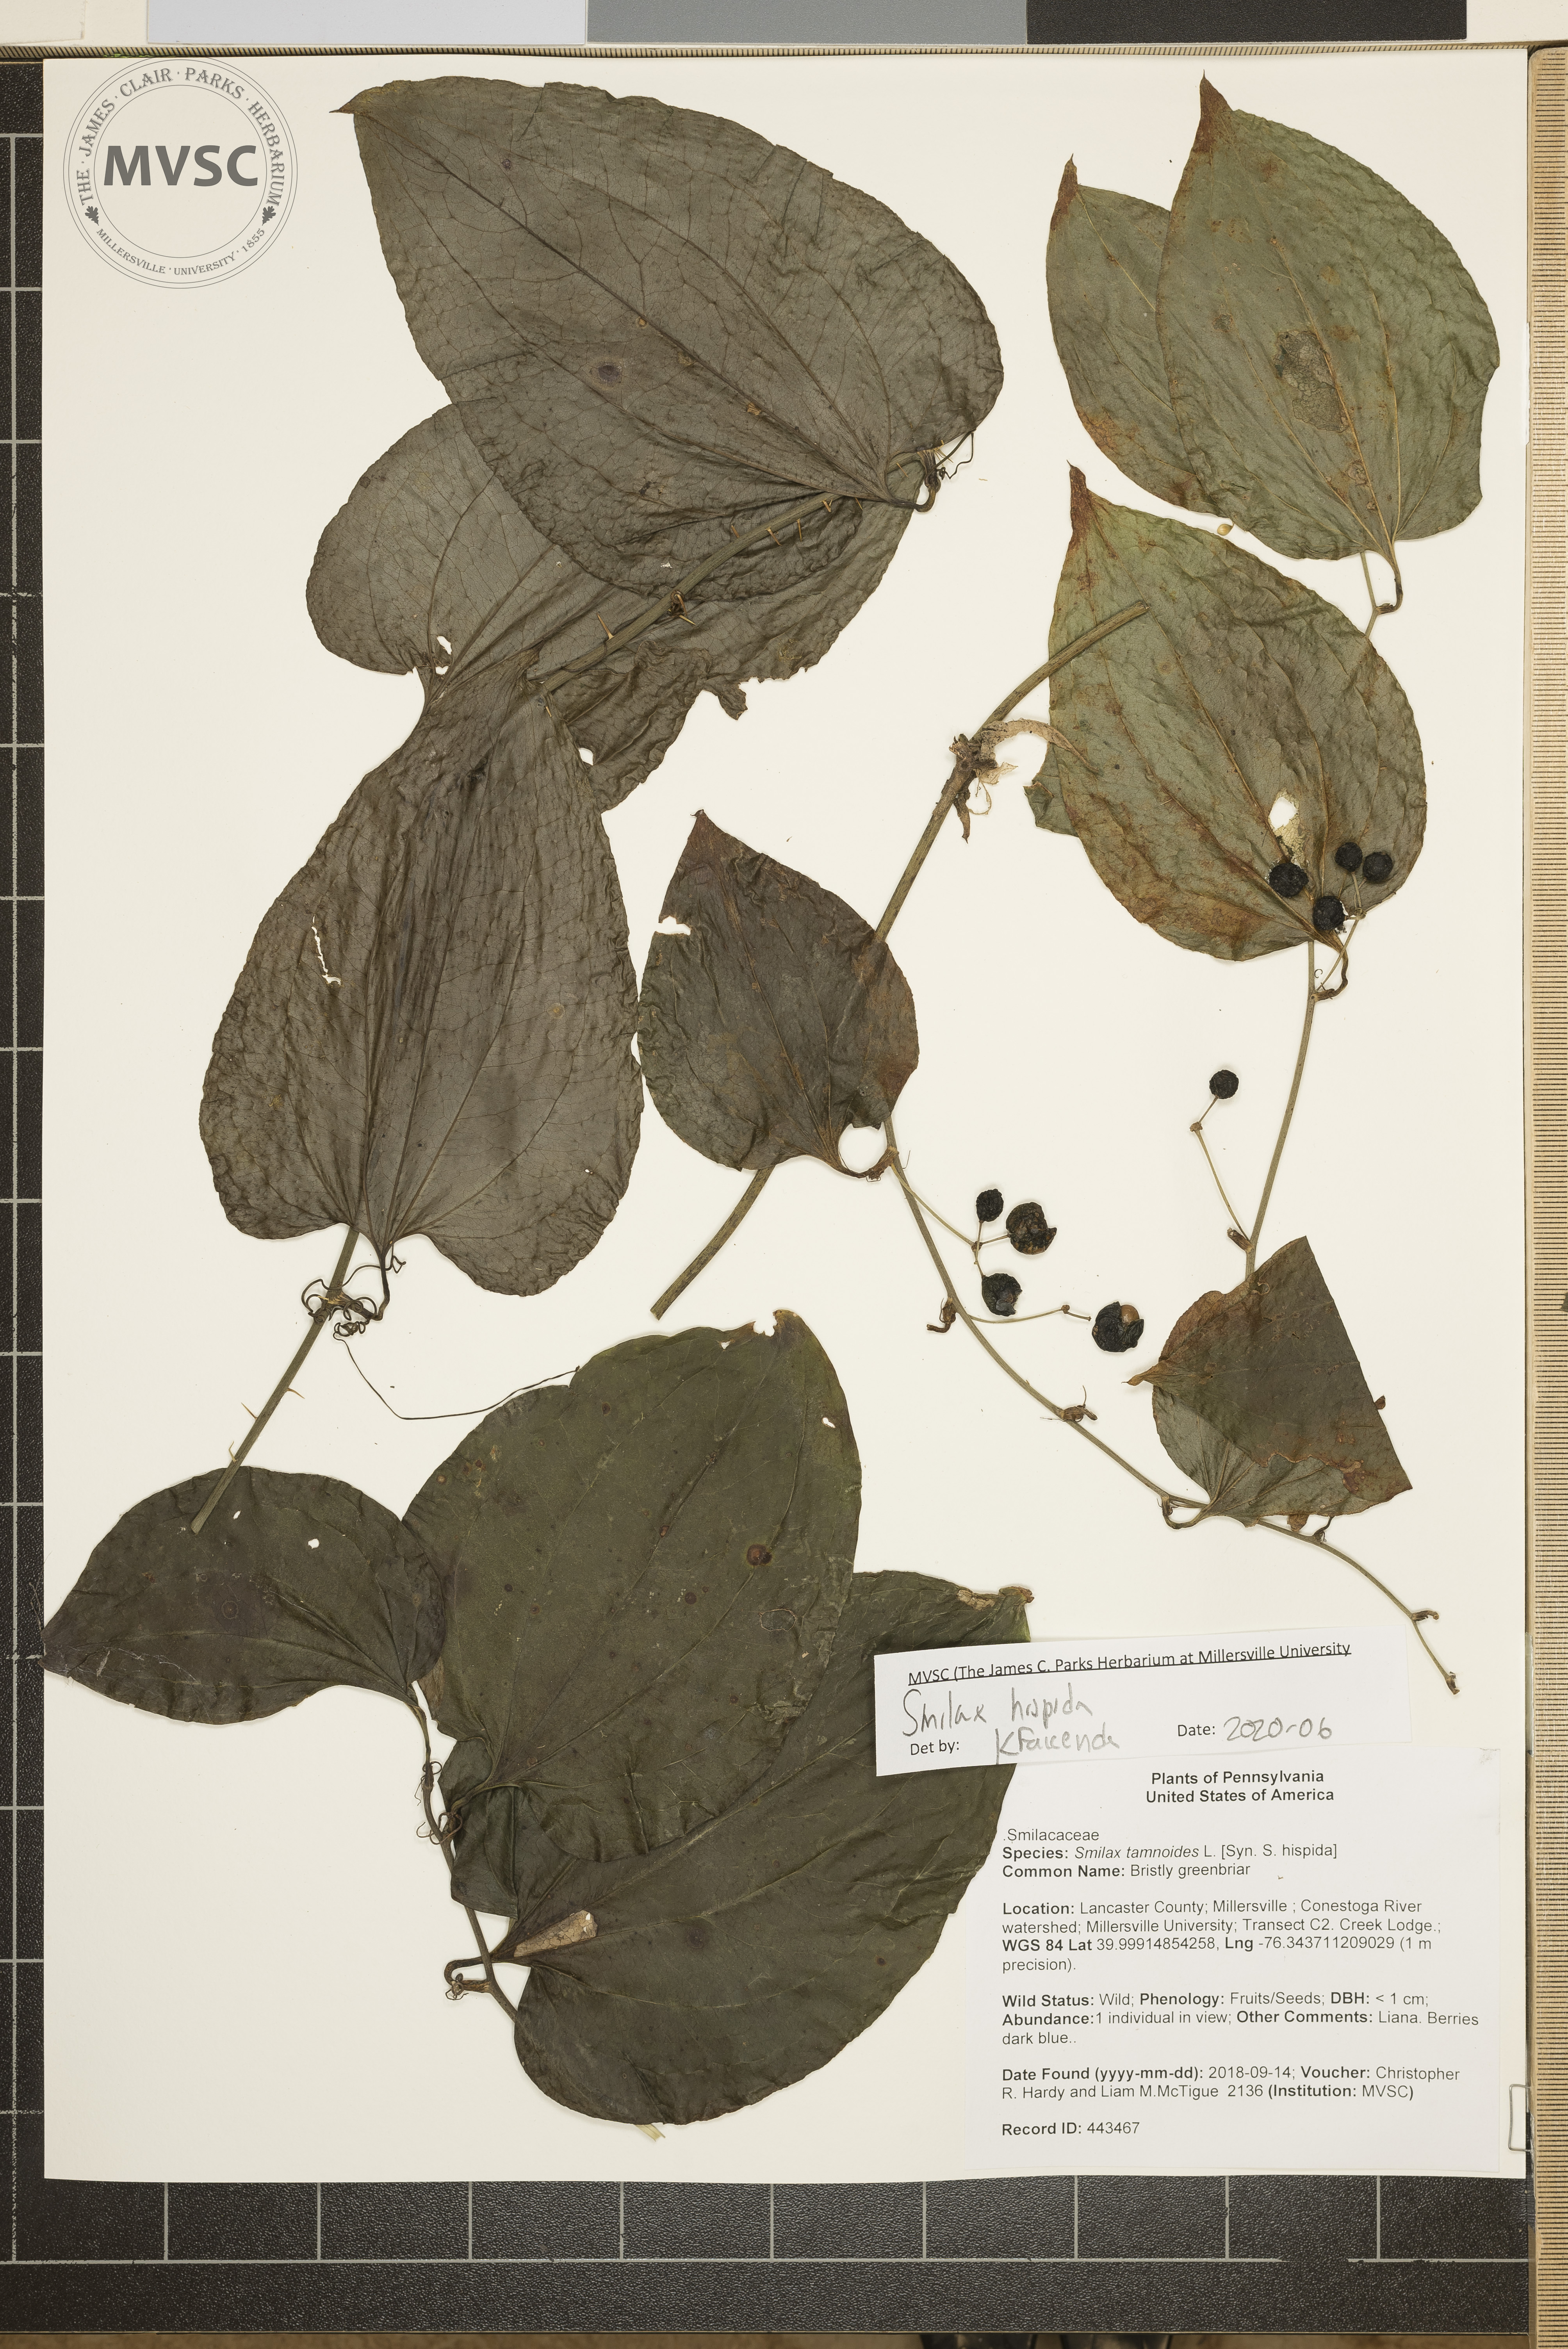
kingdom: Plantae
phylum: Tracheophyta
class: Liliopsida
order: Liliales
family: Smilacaceae
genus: Smilax
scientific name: Smilax hispida
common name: Bristly greenbriar
